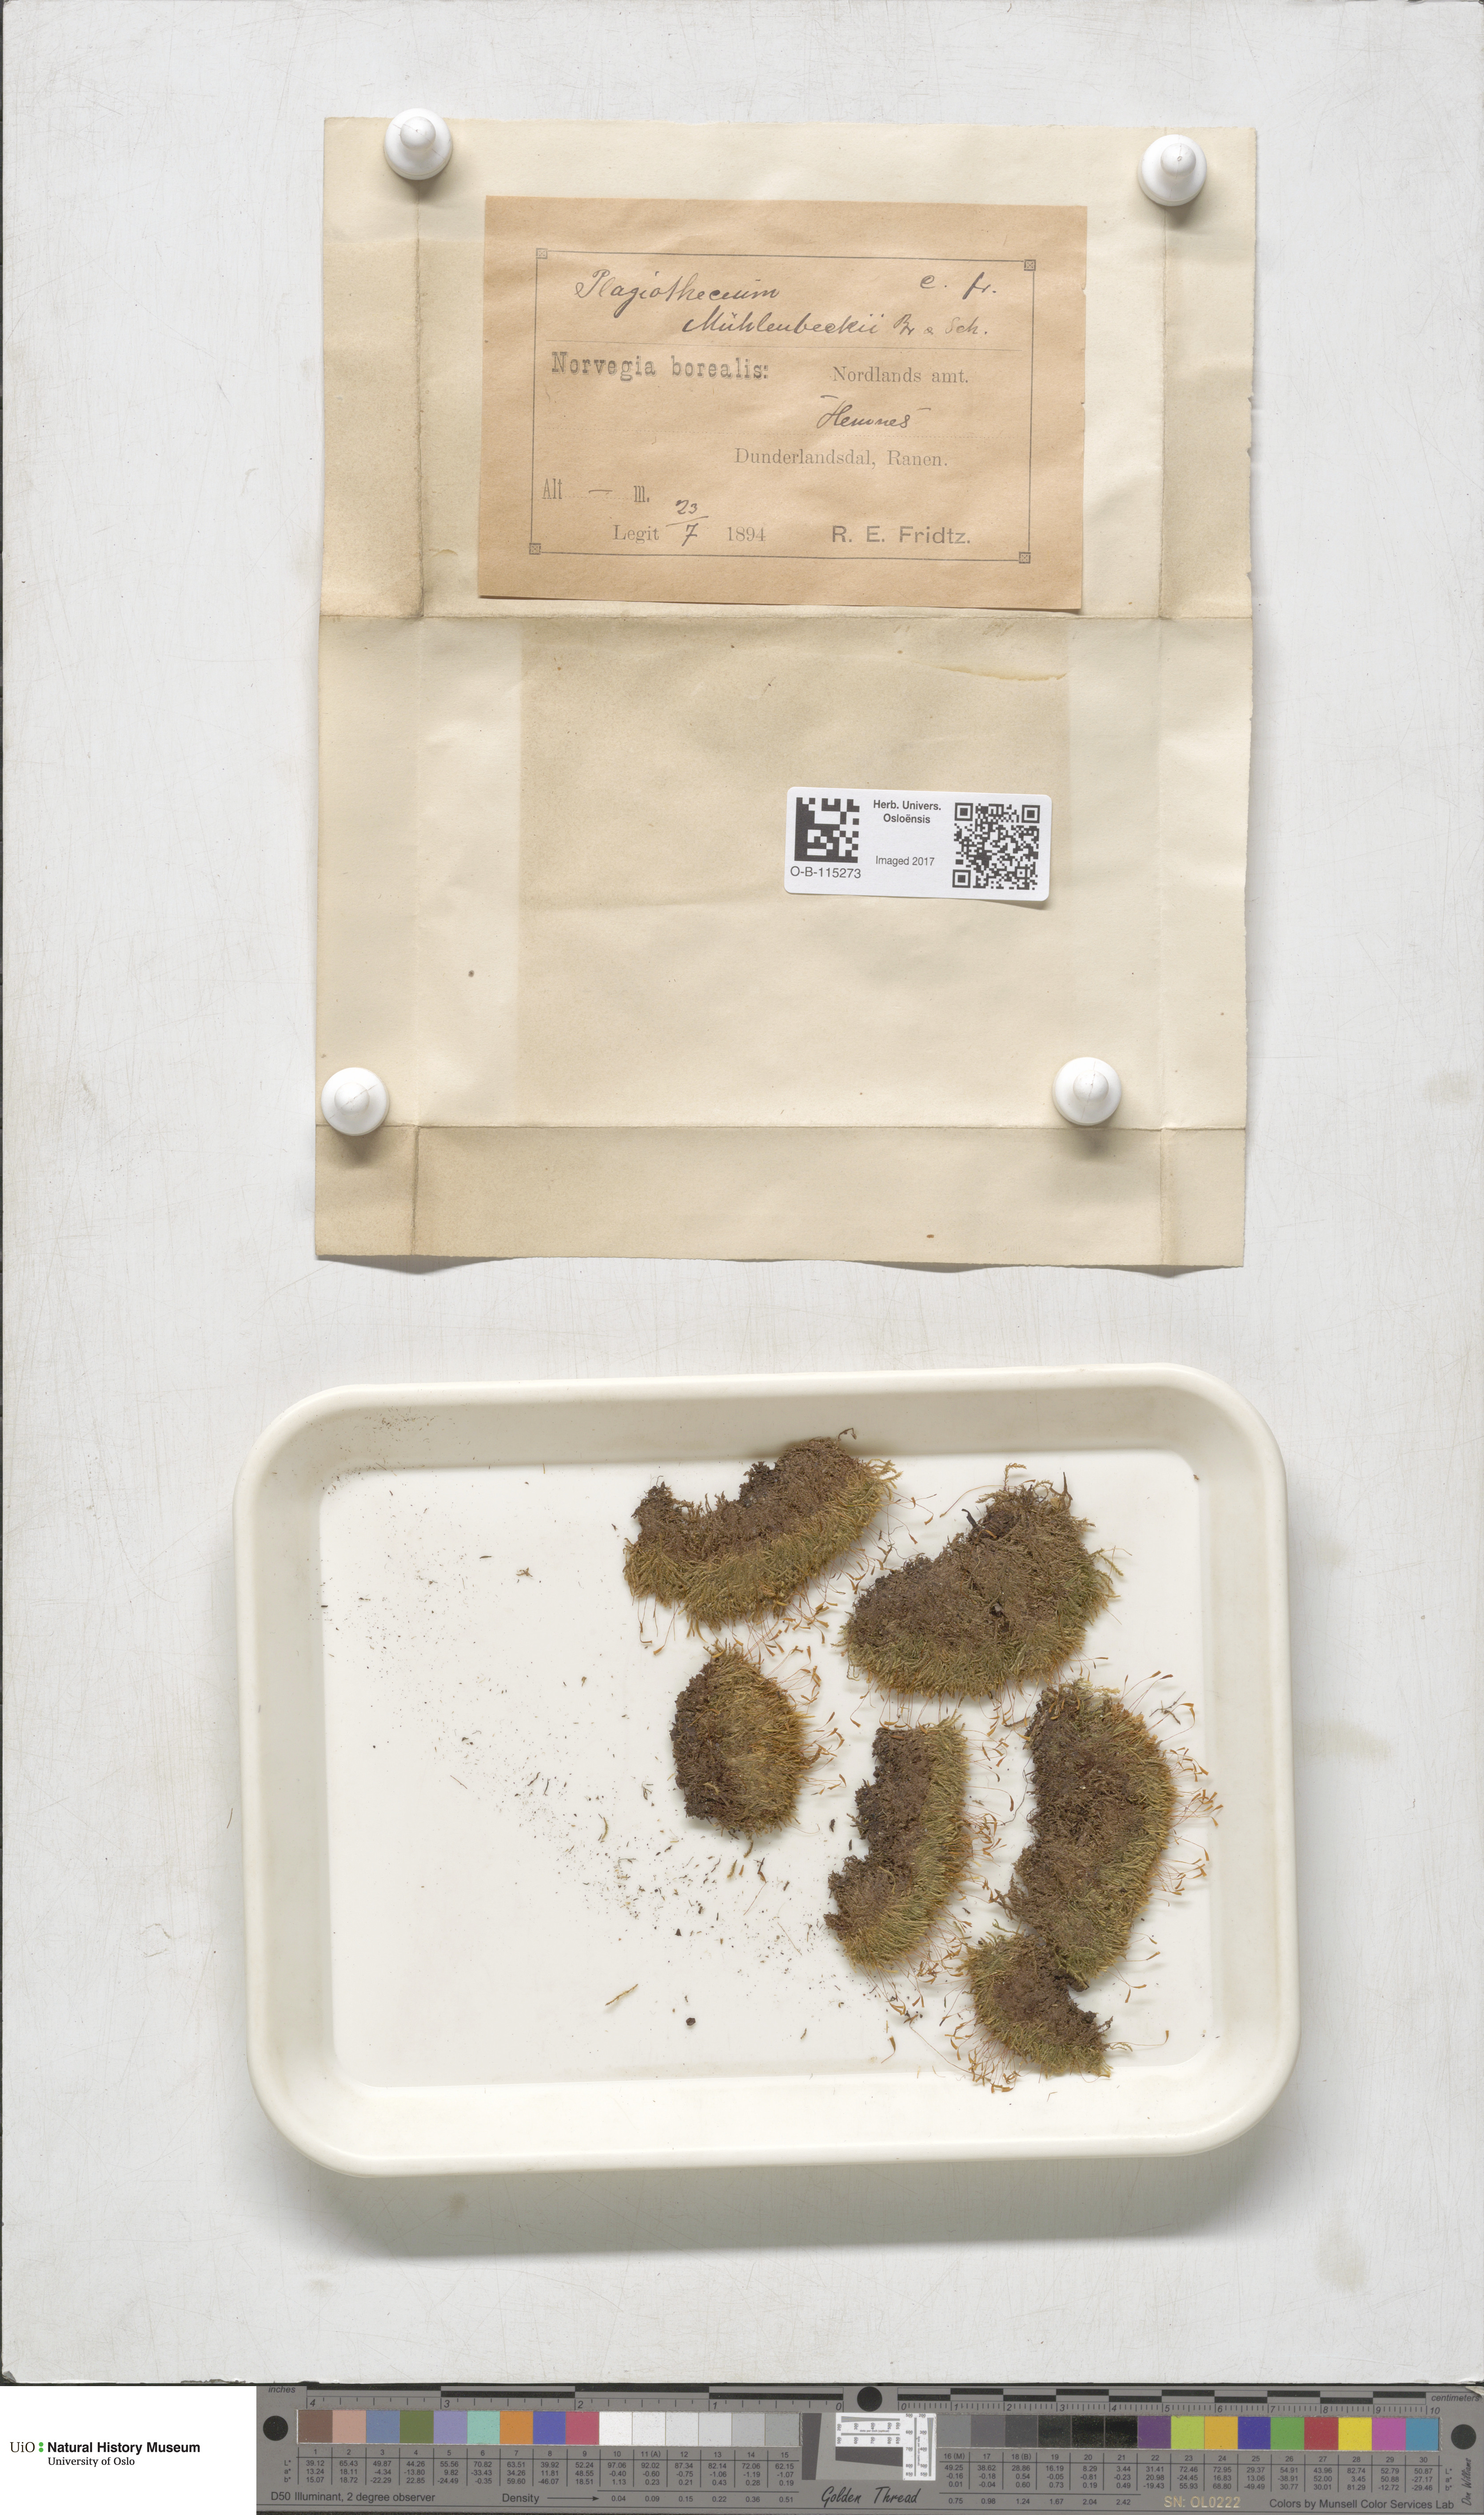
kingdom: Plantae
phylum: Bryophyta
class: Bryopsida
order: Hypnales
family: Plagiotheciaceae
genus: Herzogiella
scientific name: Herzogiella striatella
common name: Muhlenbeck's feather-moss
